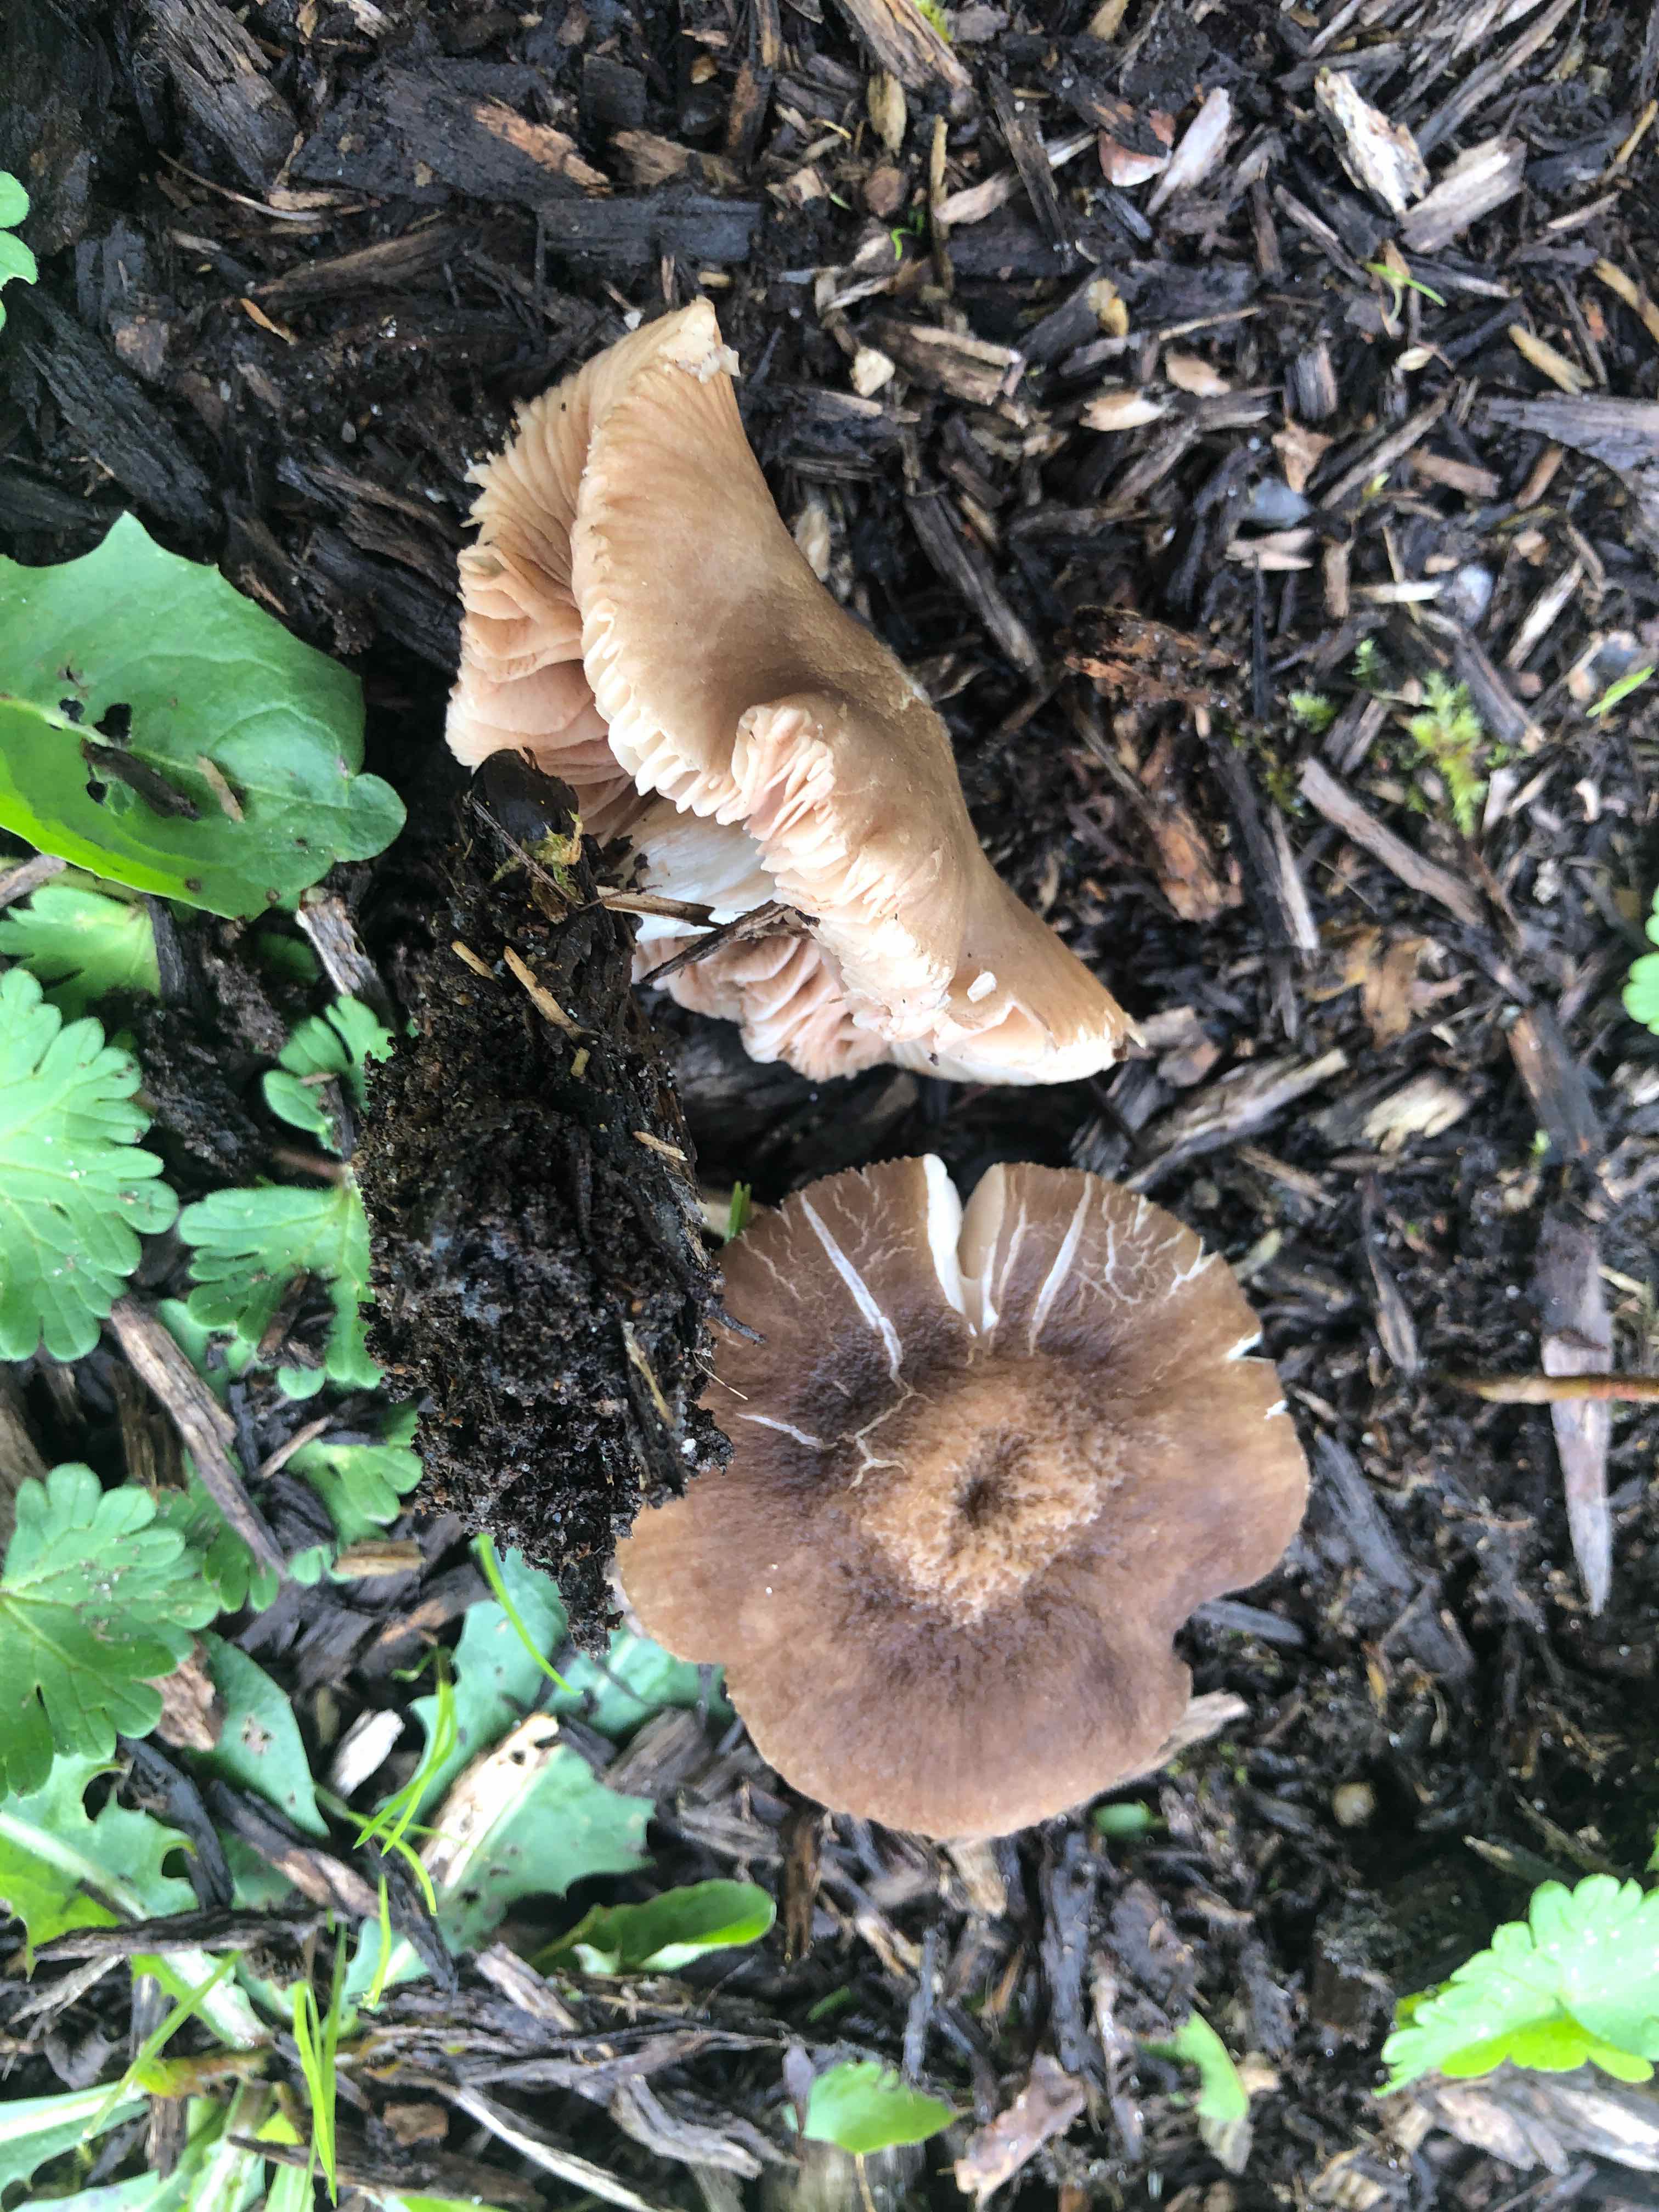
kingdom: Fungi
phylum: Basidiomycota
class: Agaricomycetes
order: Agaricales
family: Pluteaceae
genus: Pluteus
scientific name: Pluteus
